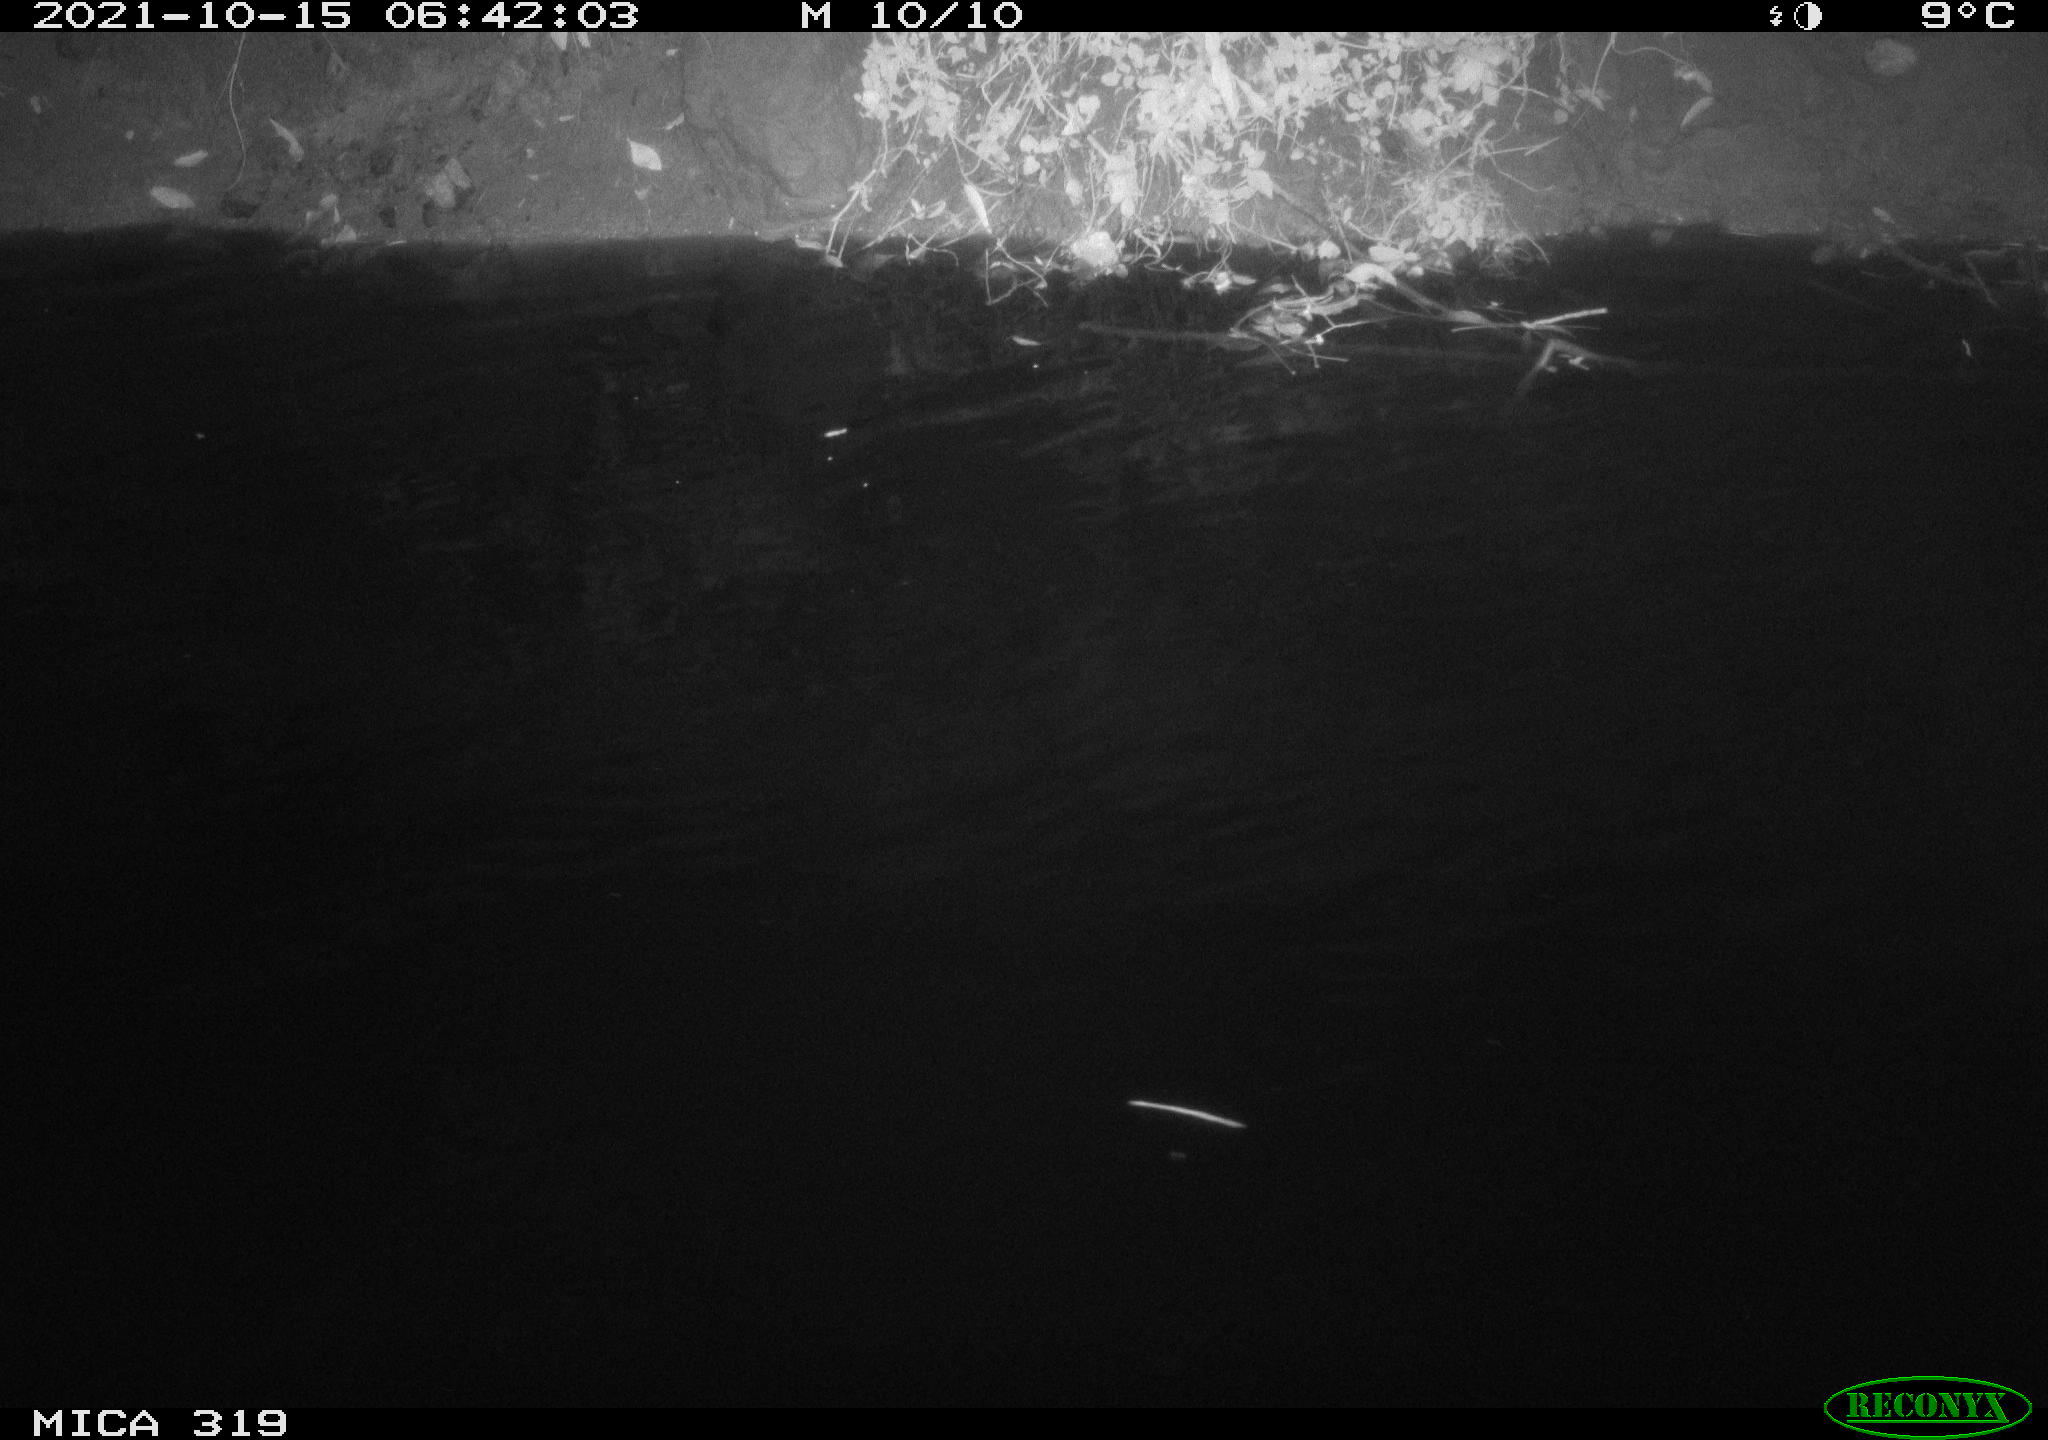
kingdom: Animalia
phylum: Chordata
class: Aves
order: Anseriformes
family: Anatidae
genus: Anas
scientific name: Anas platyrhynchos
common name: Mallard
